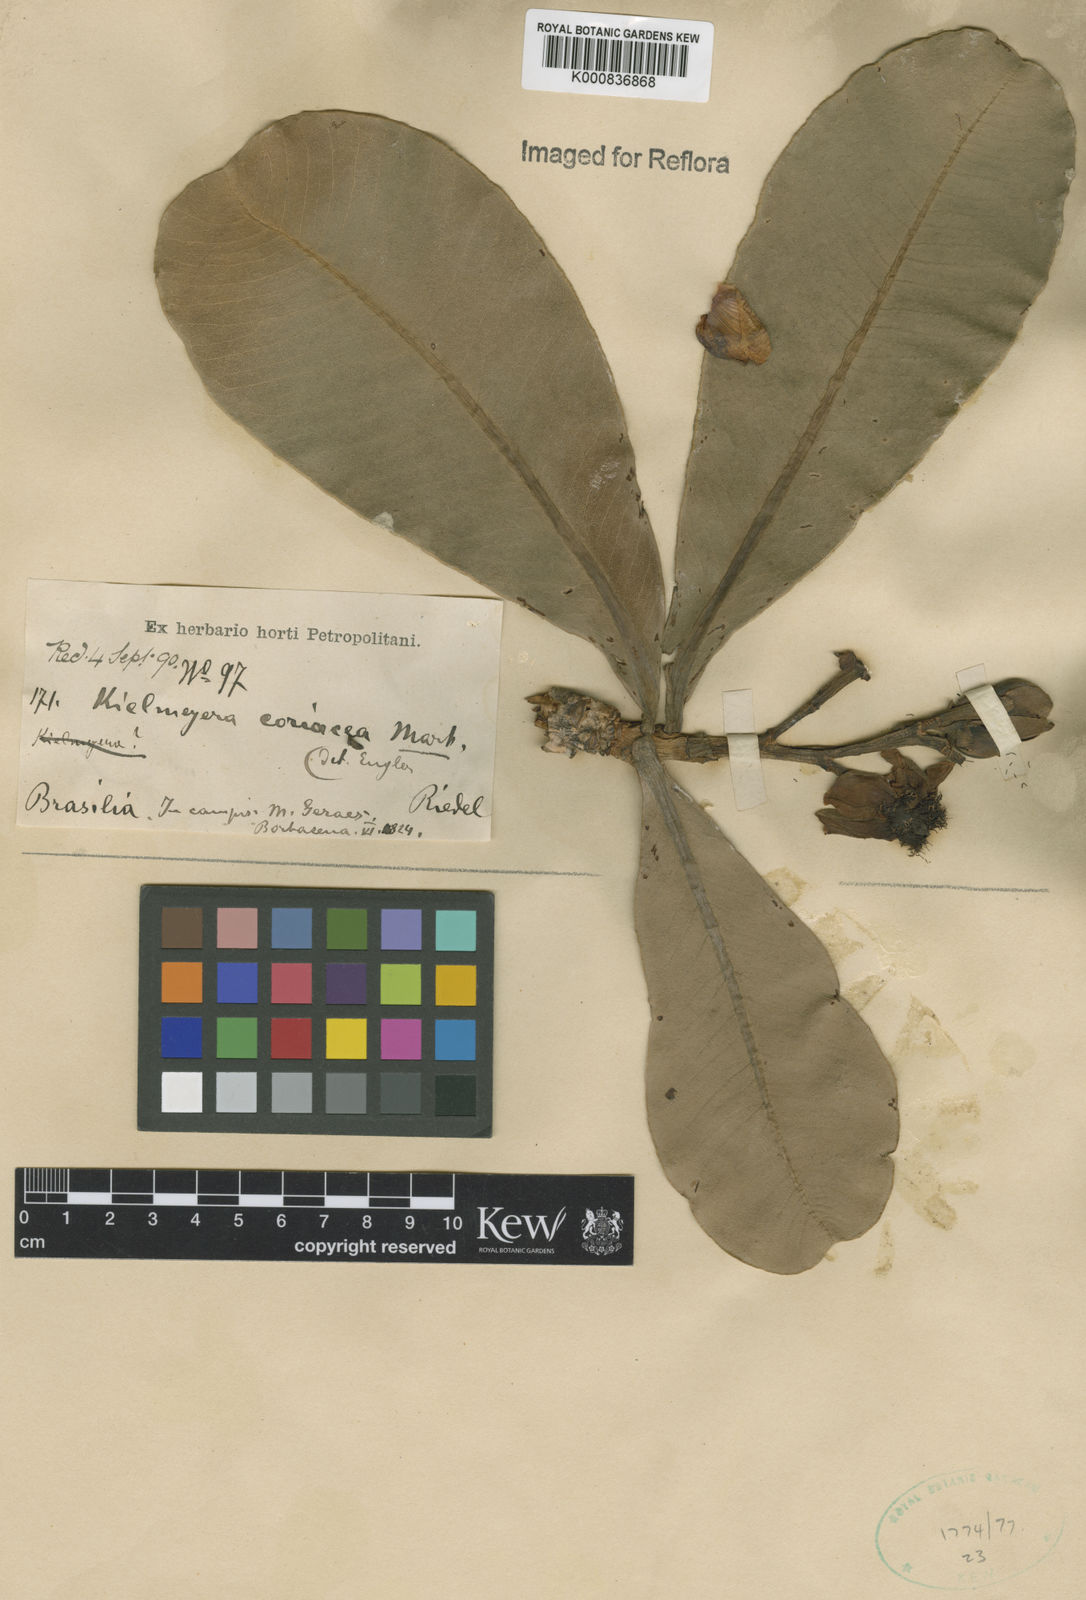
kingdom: Plantae
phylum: Tracheophyta
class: Magnoliopsida
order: Malpighiales
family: Calophyllaceae
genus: Kielmeyera
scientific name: Kielmeyera coriacea
